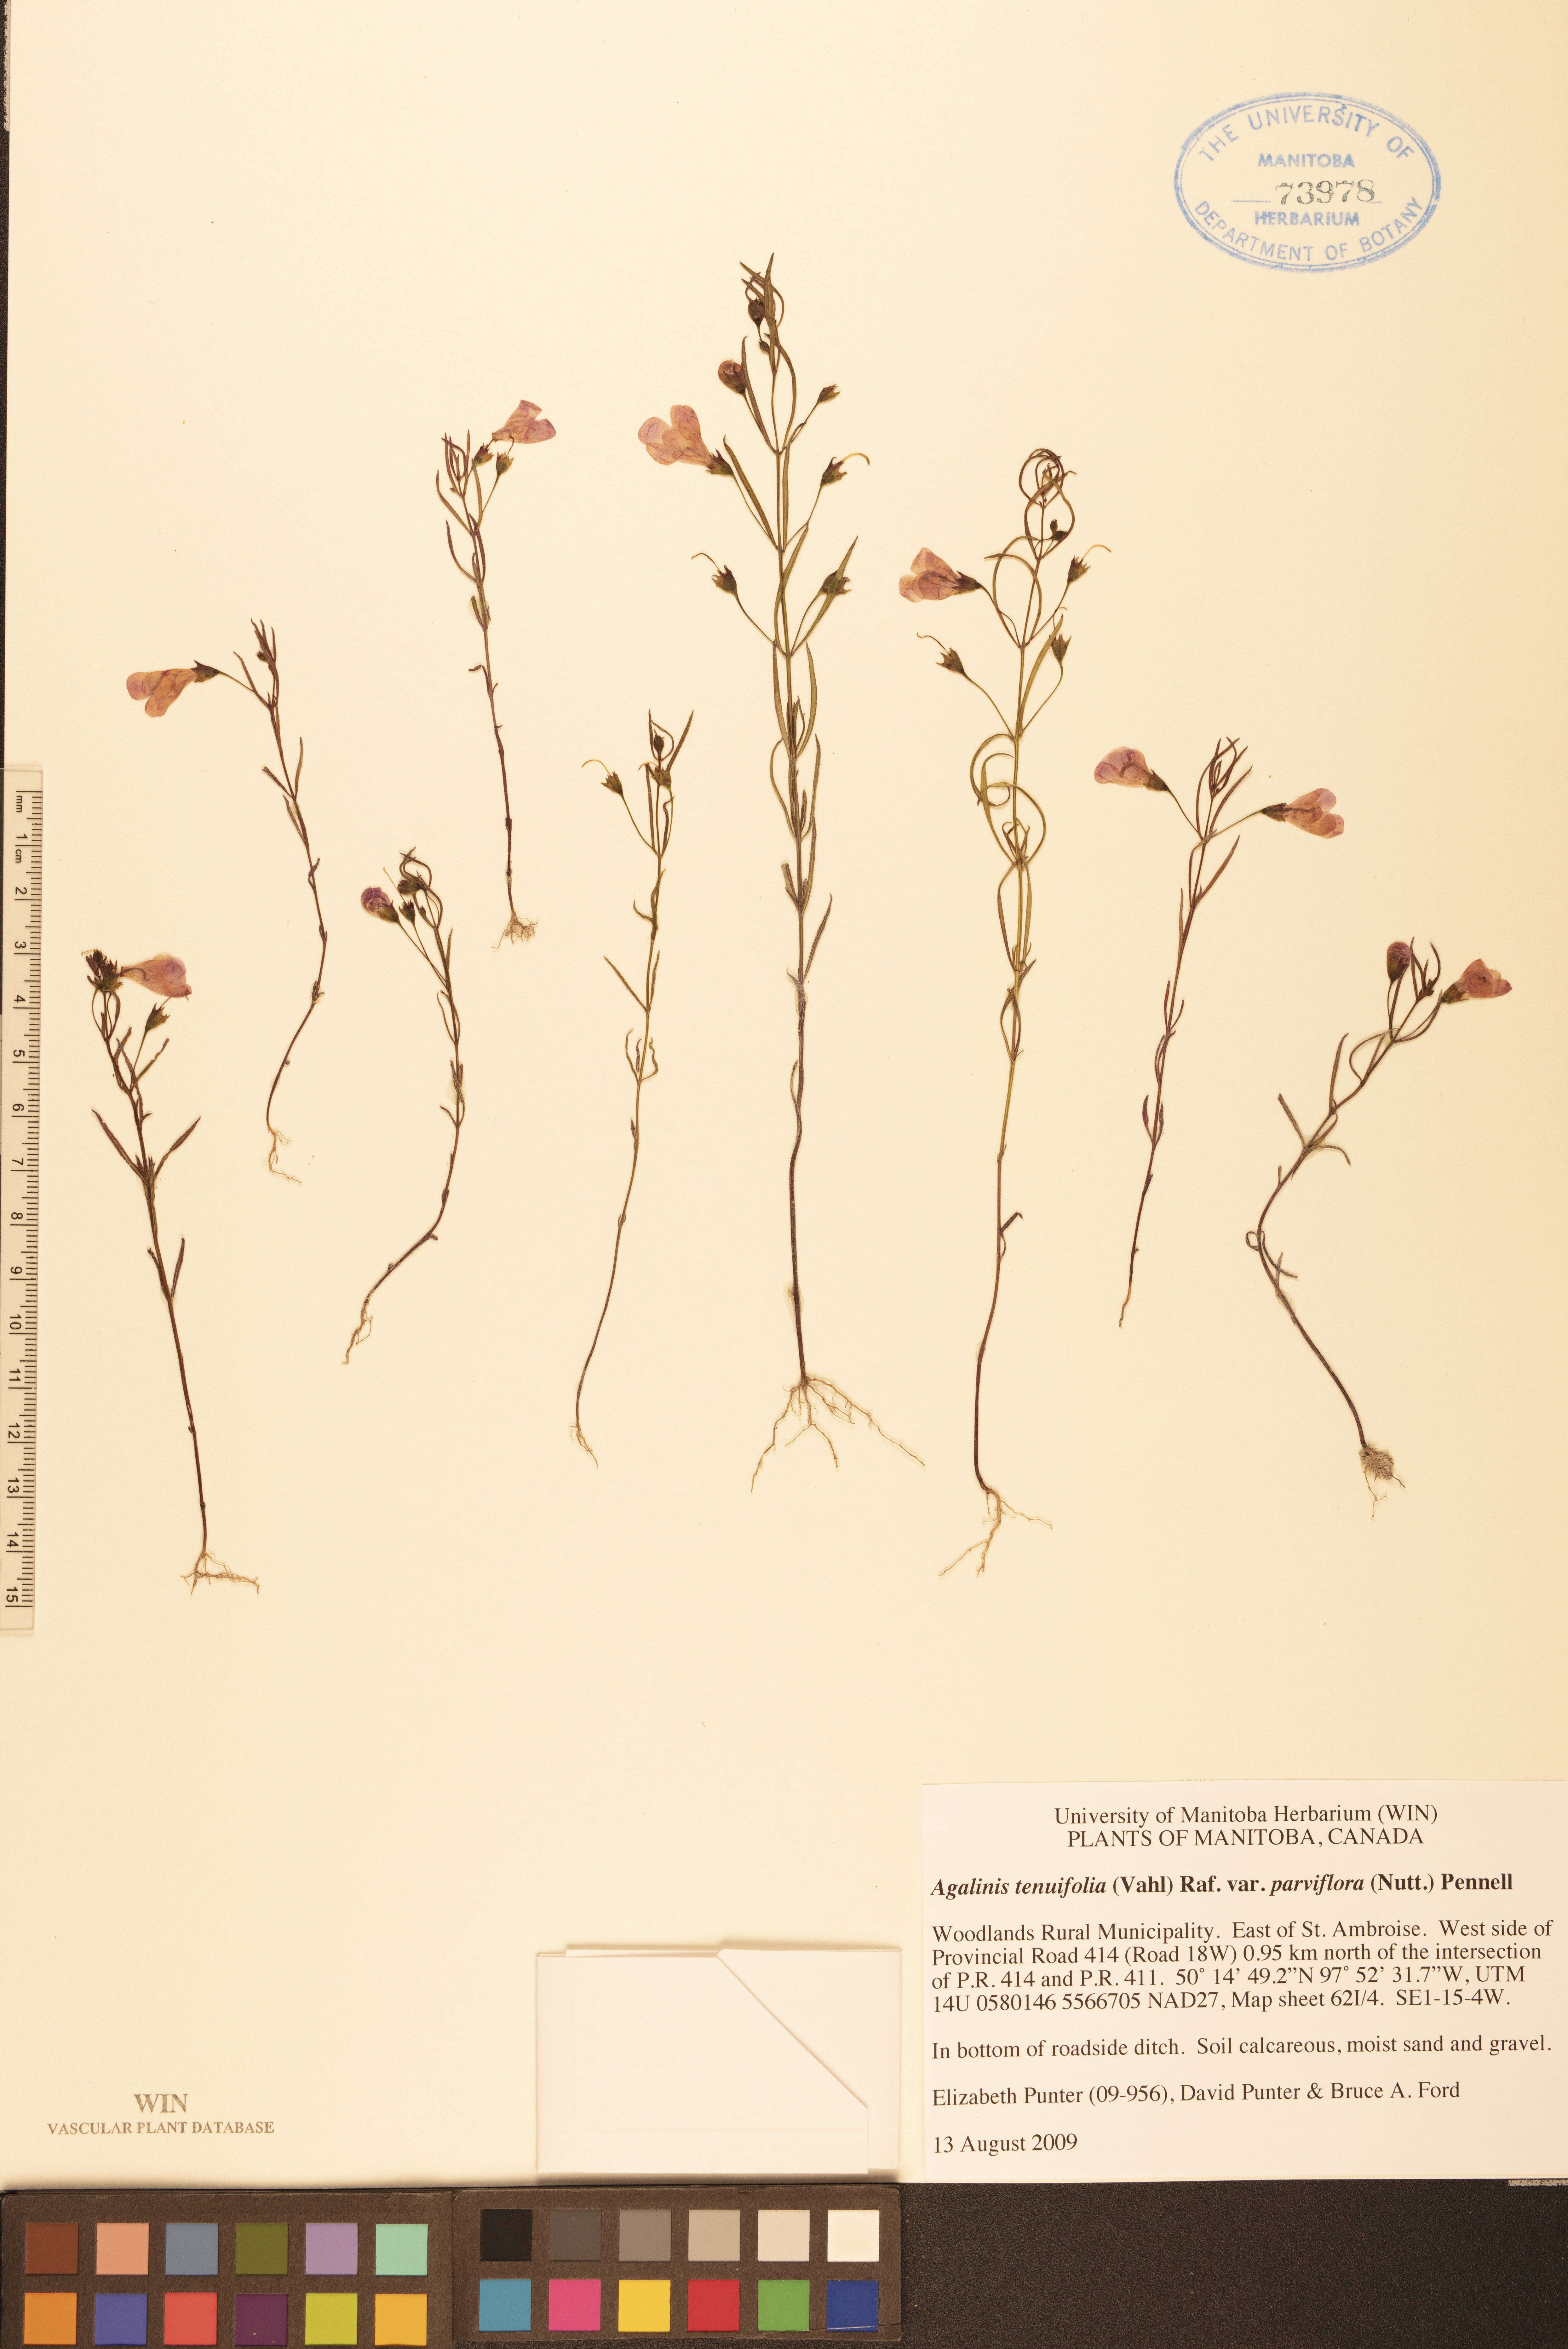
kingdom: Plantae
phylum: Tracheophyta
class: Magnoliopsida
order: Lamiales
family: Orobanchaceae
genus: Agalinis
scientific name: Agalinis tenuifolia
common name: Slender agalinis
